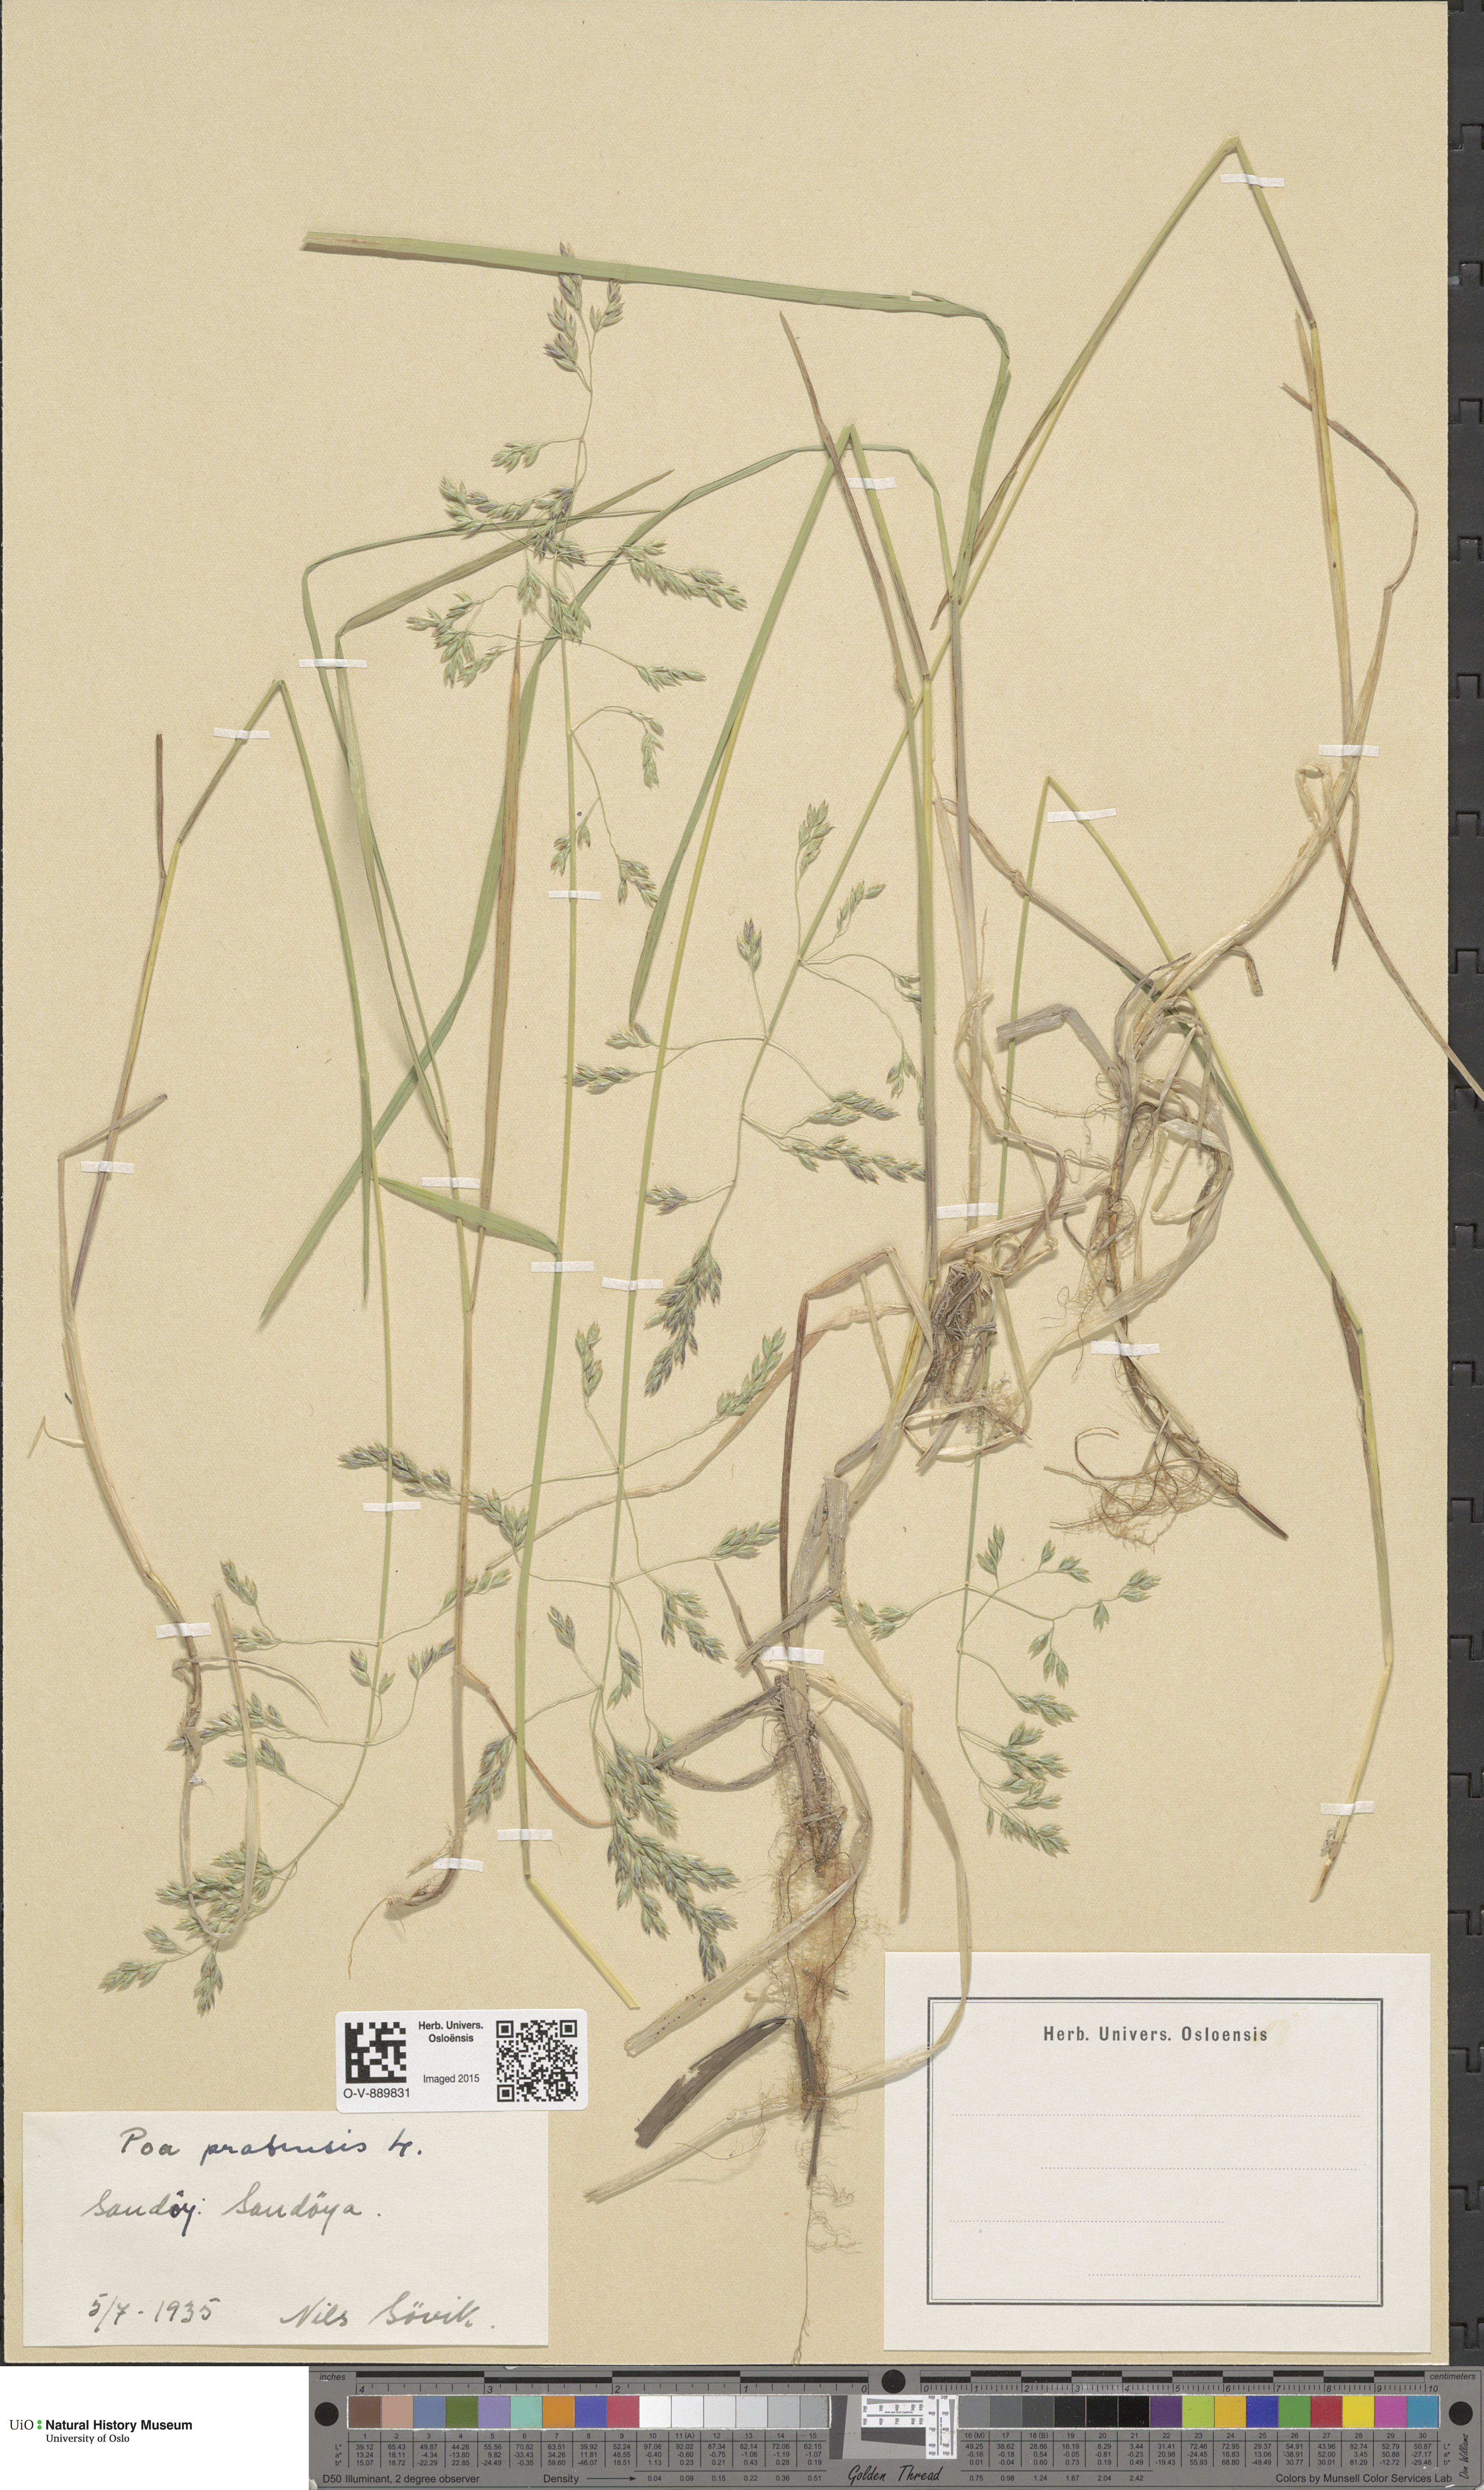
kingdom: Plantae
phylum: Tracheophyta
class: Liliopsida
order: Poales
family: Poaceae
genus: Poa
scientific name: Poa pratensis
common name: Kentucky bluegrass
